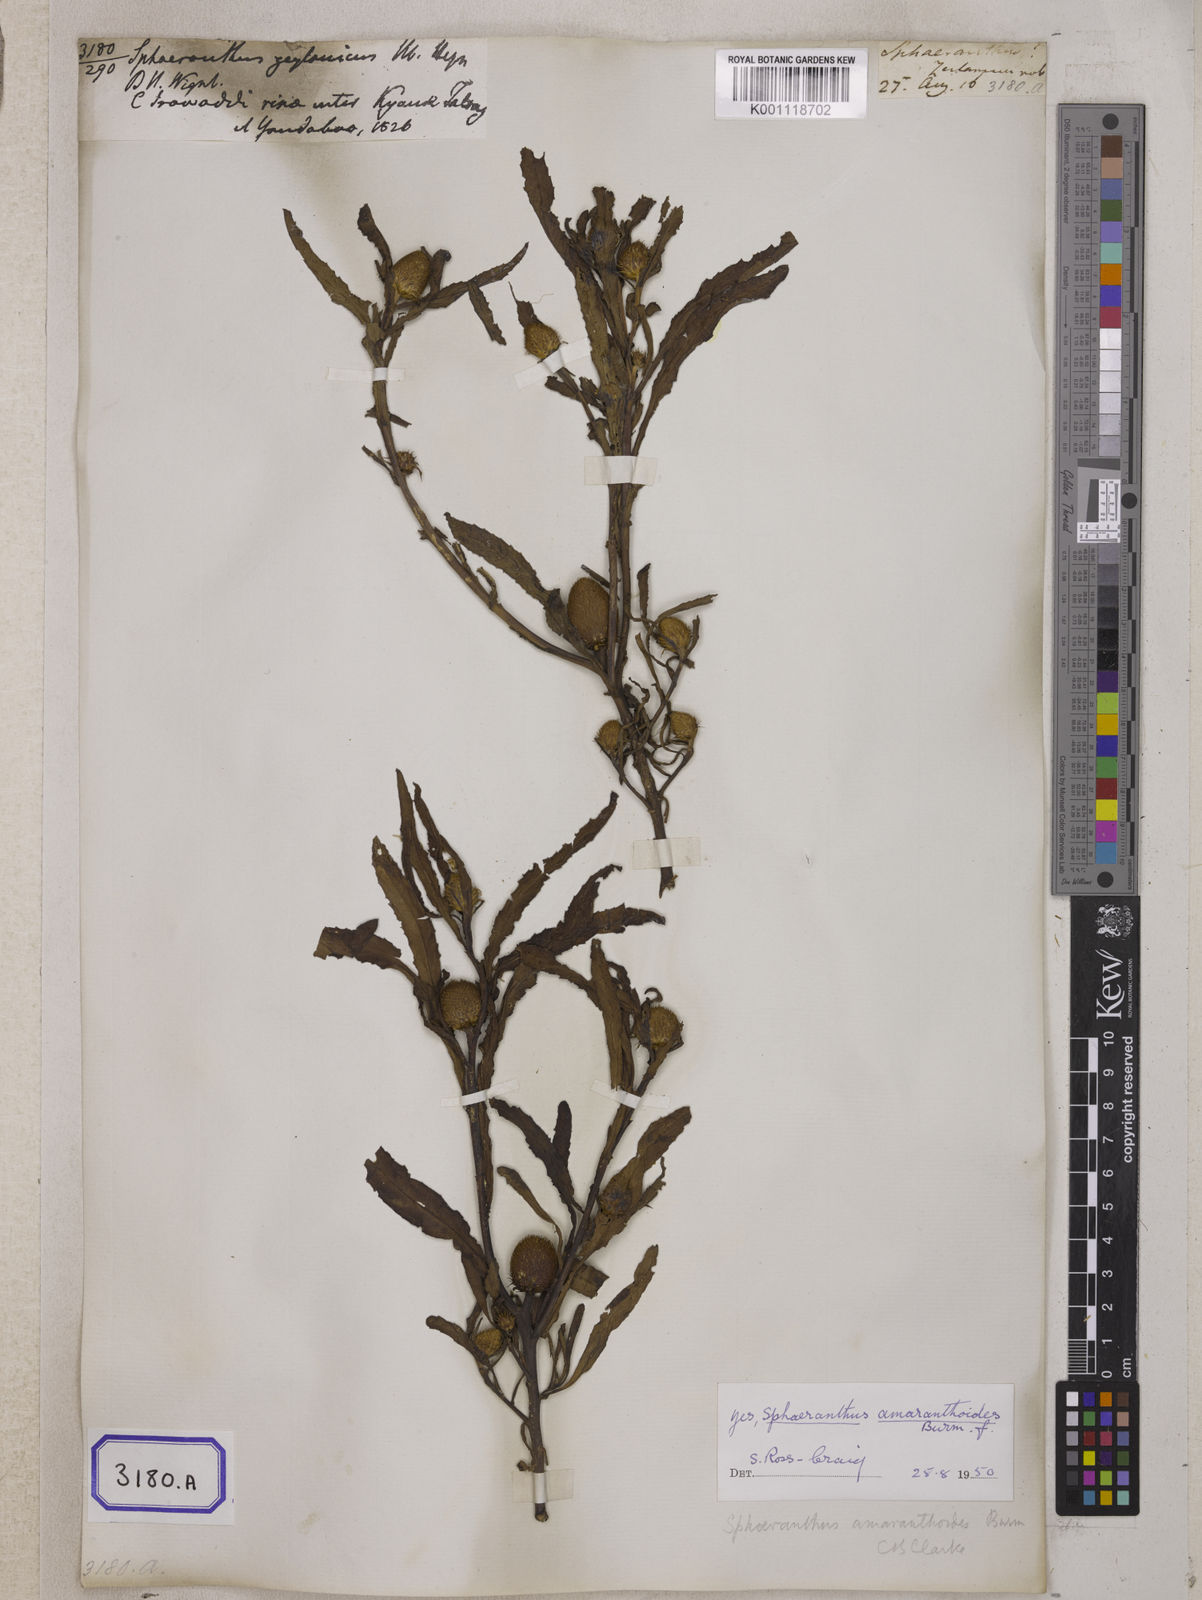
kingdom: Plantae
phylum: Tracheophyta
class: Magnoliopsida
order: Asterales
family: Asteraceae
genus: Sphaeranthus
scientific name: Sphaeranthus amaranthoides
